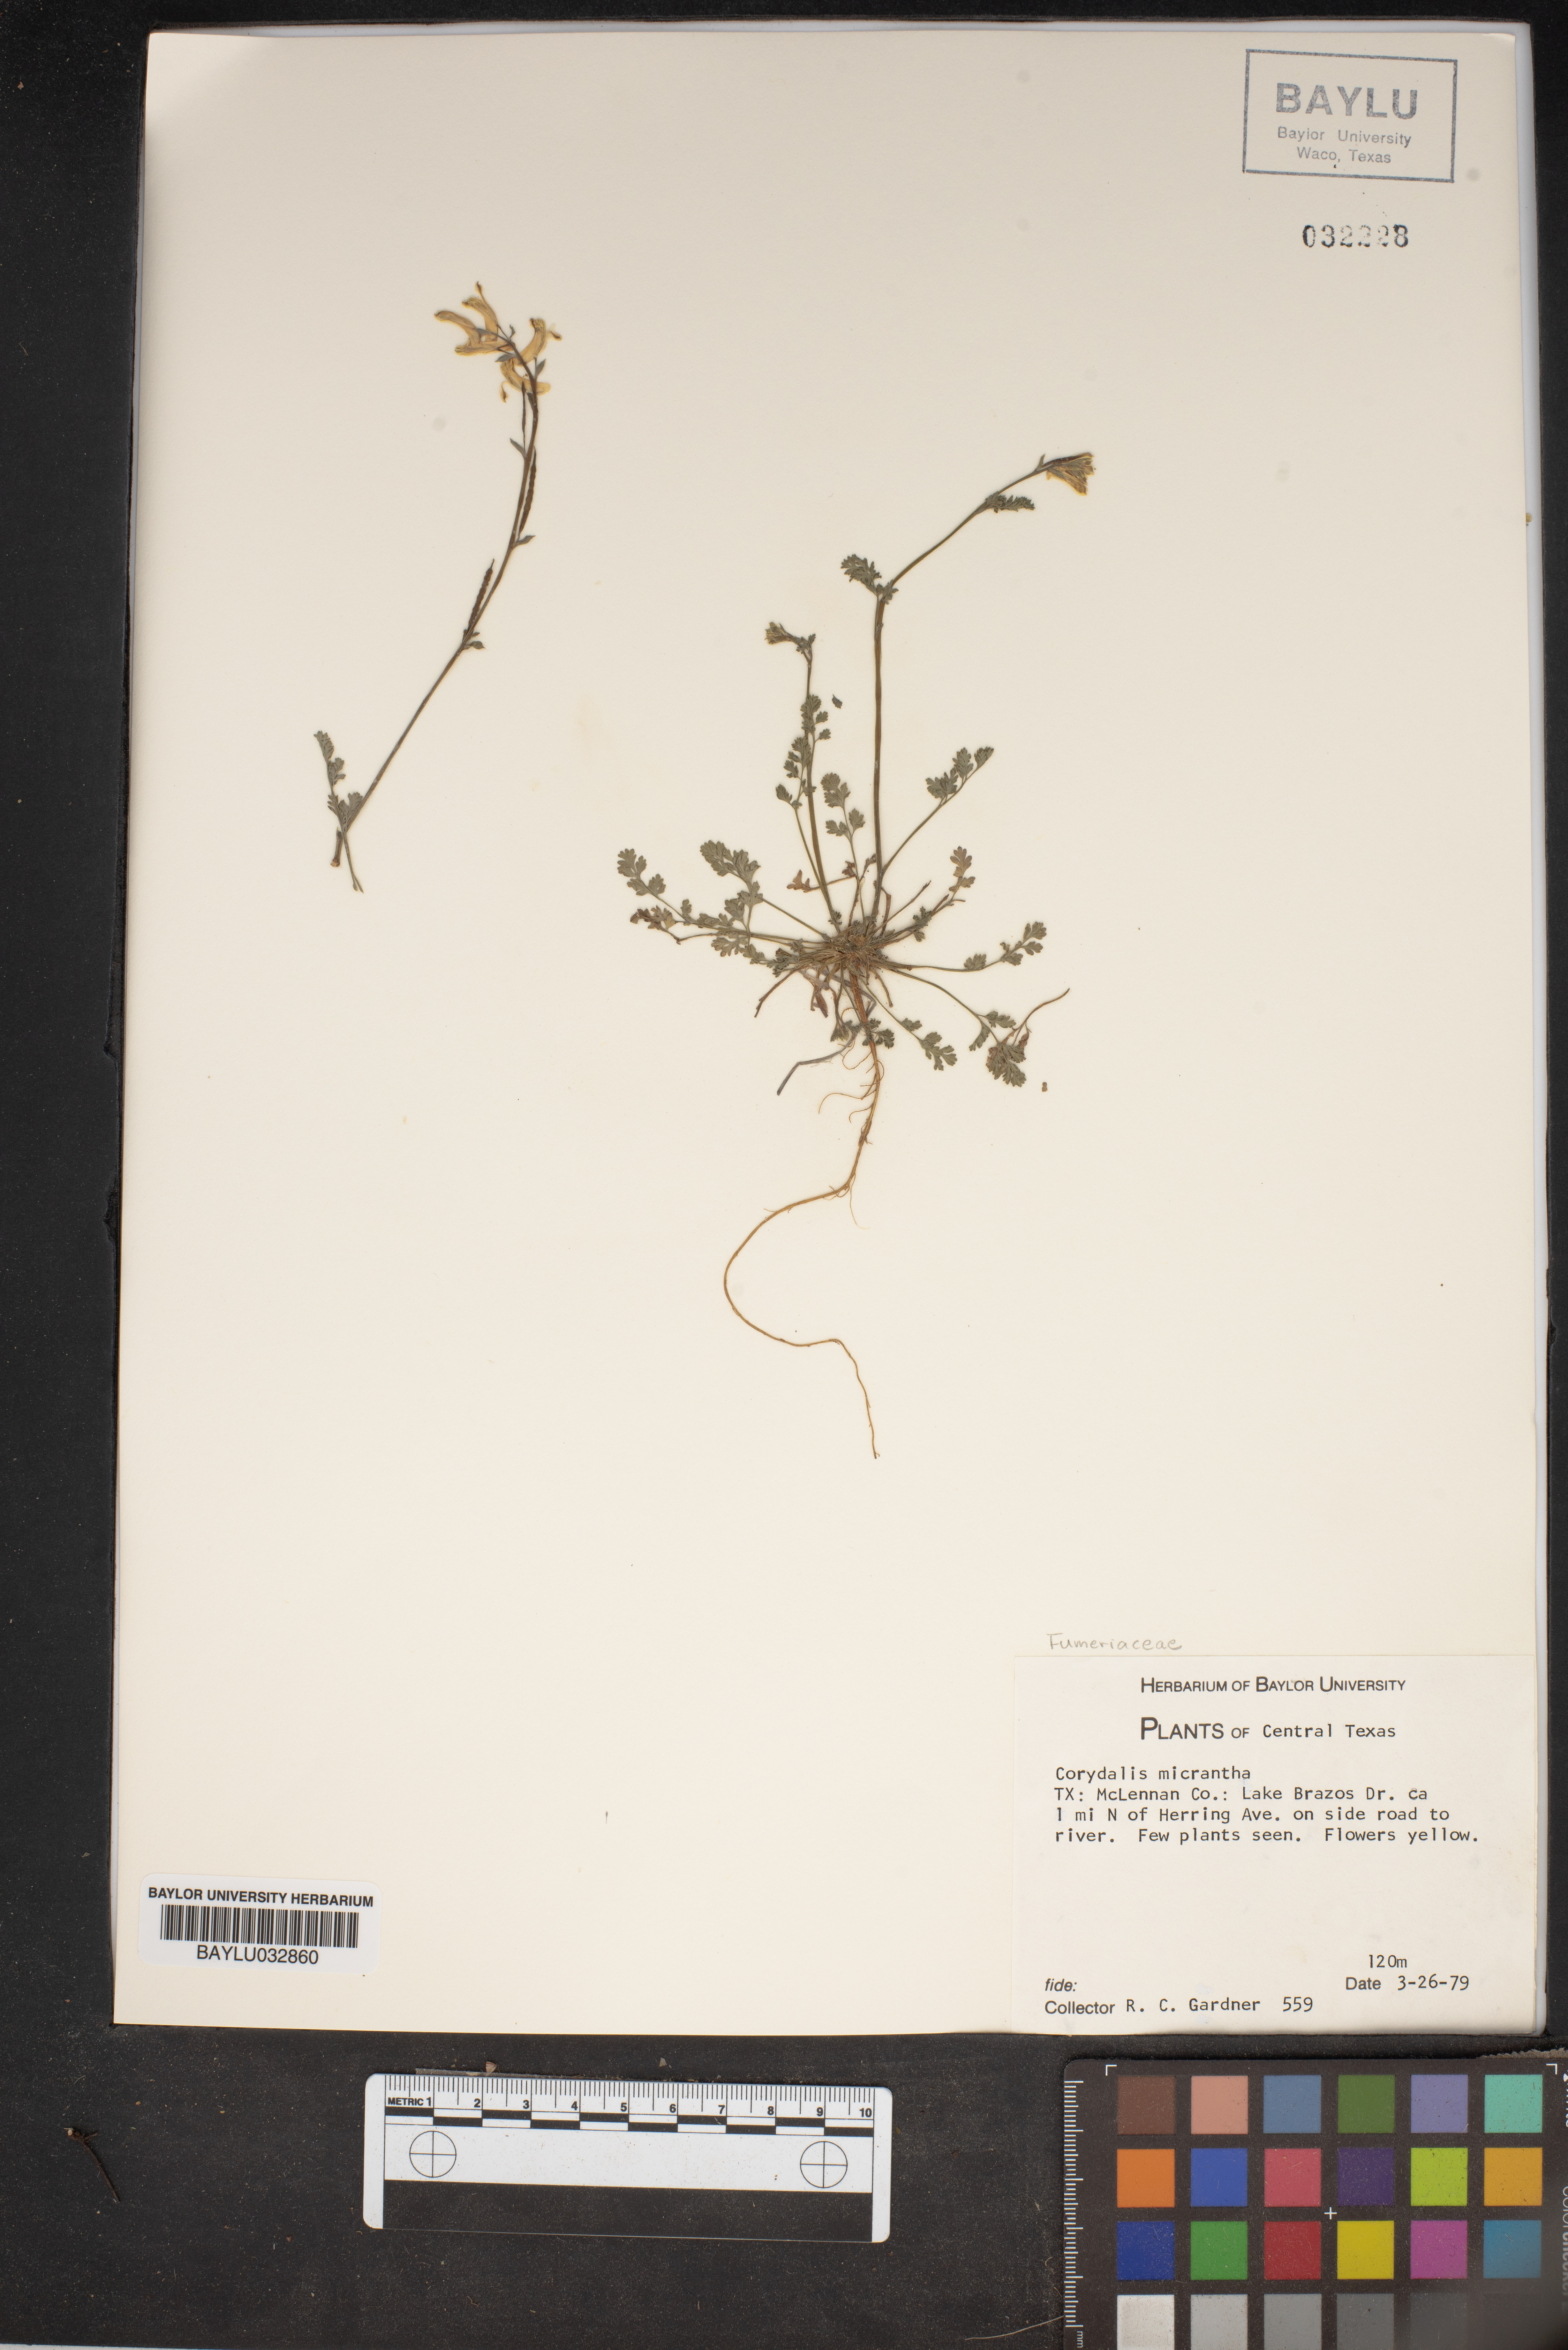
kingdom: Plantae
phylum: Tracheophyta
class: Magnoliopsida
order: Ranunculales
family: Papaveraceae
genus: Corydalis
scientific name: Corydalis micrantha
